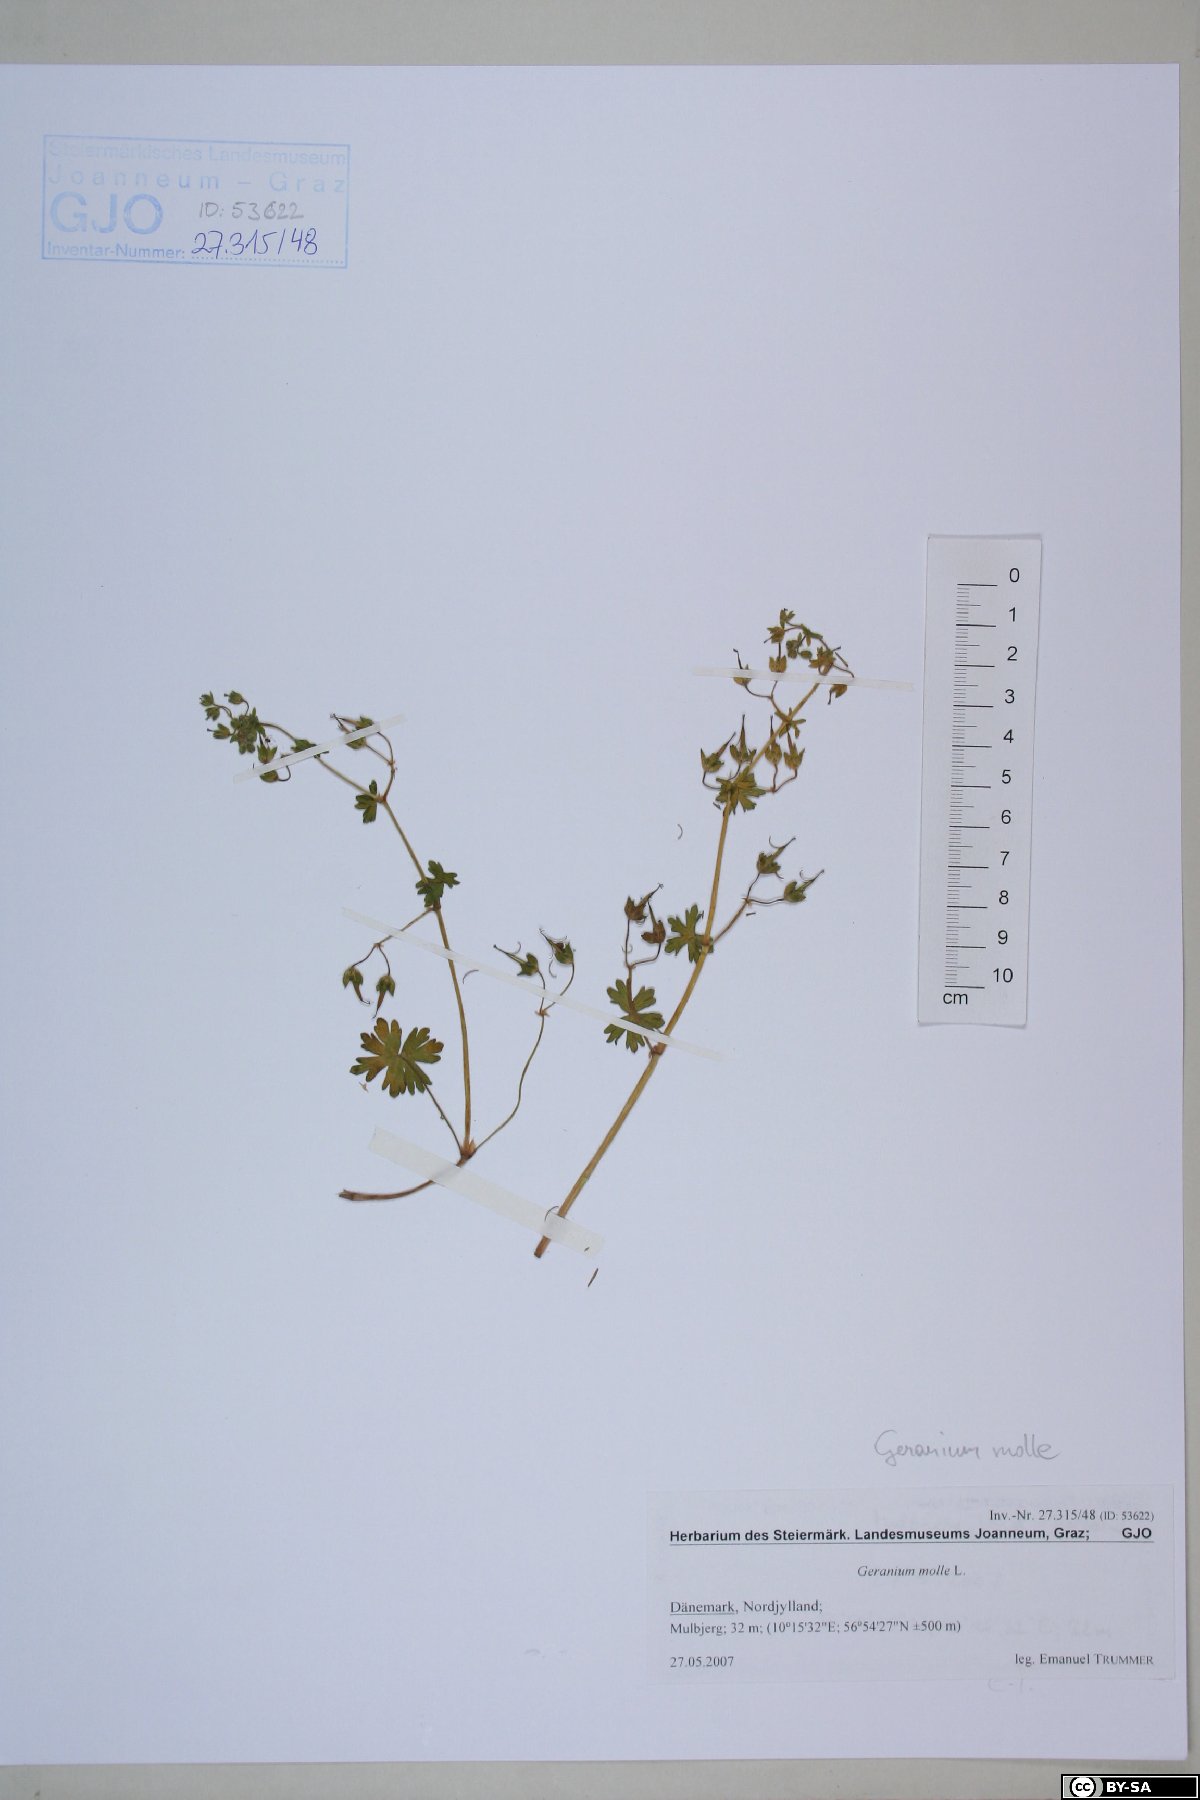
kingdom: Plantae
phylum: Tracheophyta
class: Magnoliopsida
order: Geraniales
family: Geraniaceae
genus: Geranium
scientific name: Geranium molle
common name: Dove's-foot crane's-bill
